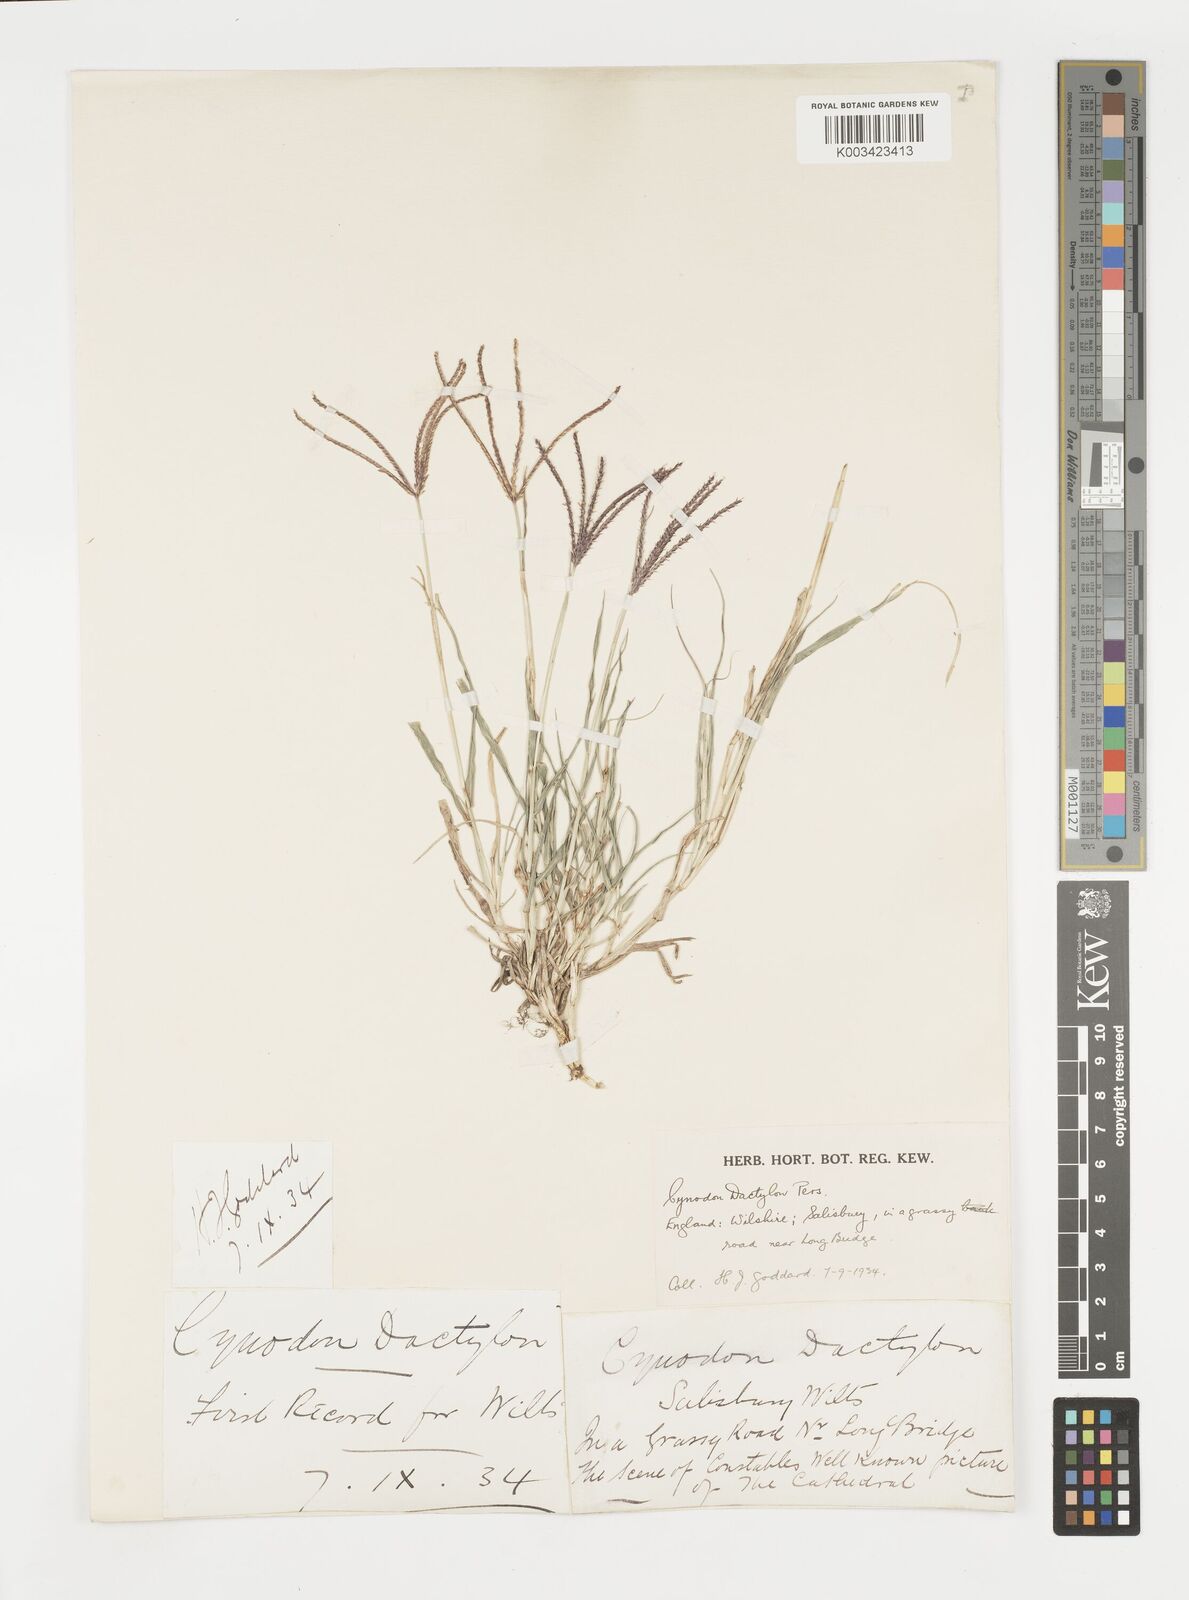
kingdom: Plantae
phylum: Tracheophyta
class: Liliopsida
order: Poales
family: Poaceae
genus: Cynodon
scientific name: Cynodon dactylon
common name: Bermuda grass
